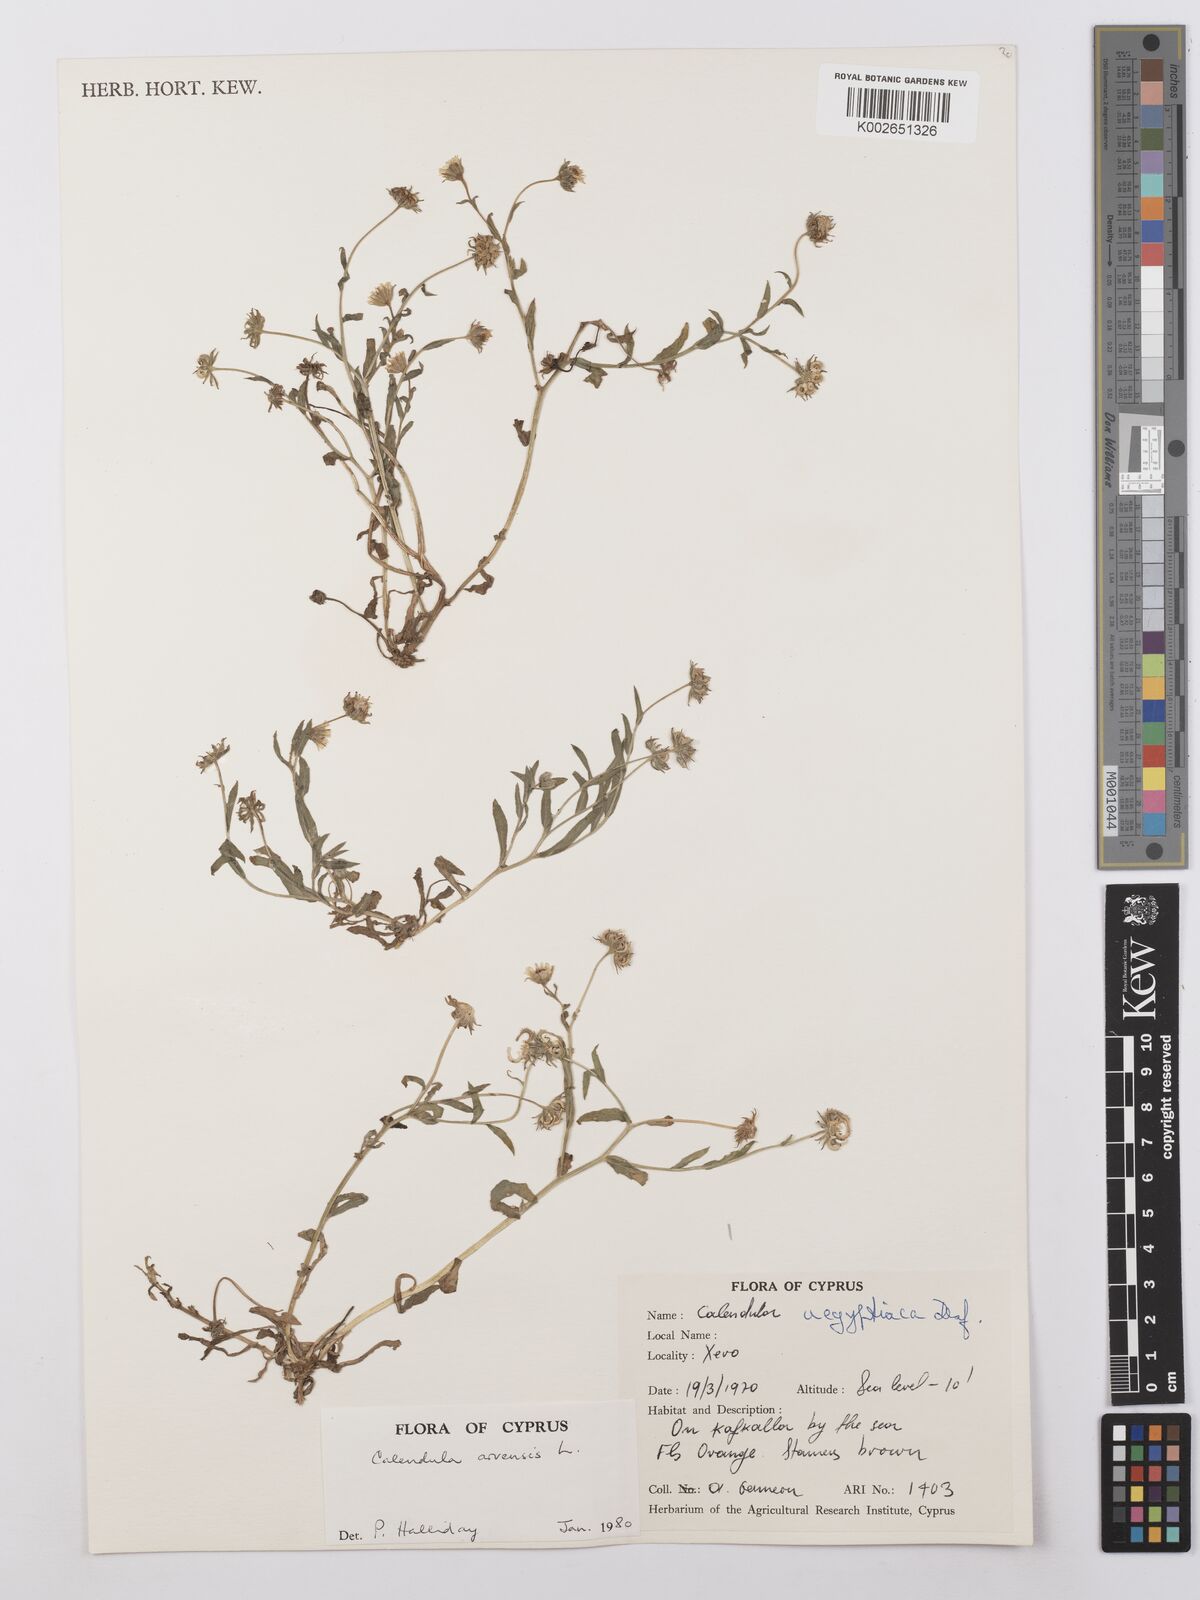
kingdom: Plantae
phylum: Tracheophyta
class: Magnoliopsida
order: Asterales
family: Asteraceae
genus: Calendula
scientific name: Calendula arvensis
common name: Field marigold
